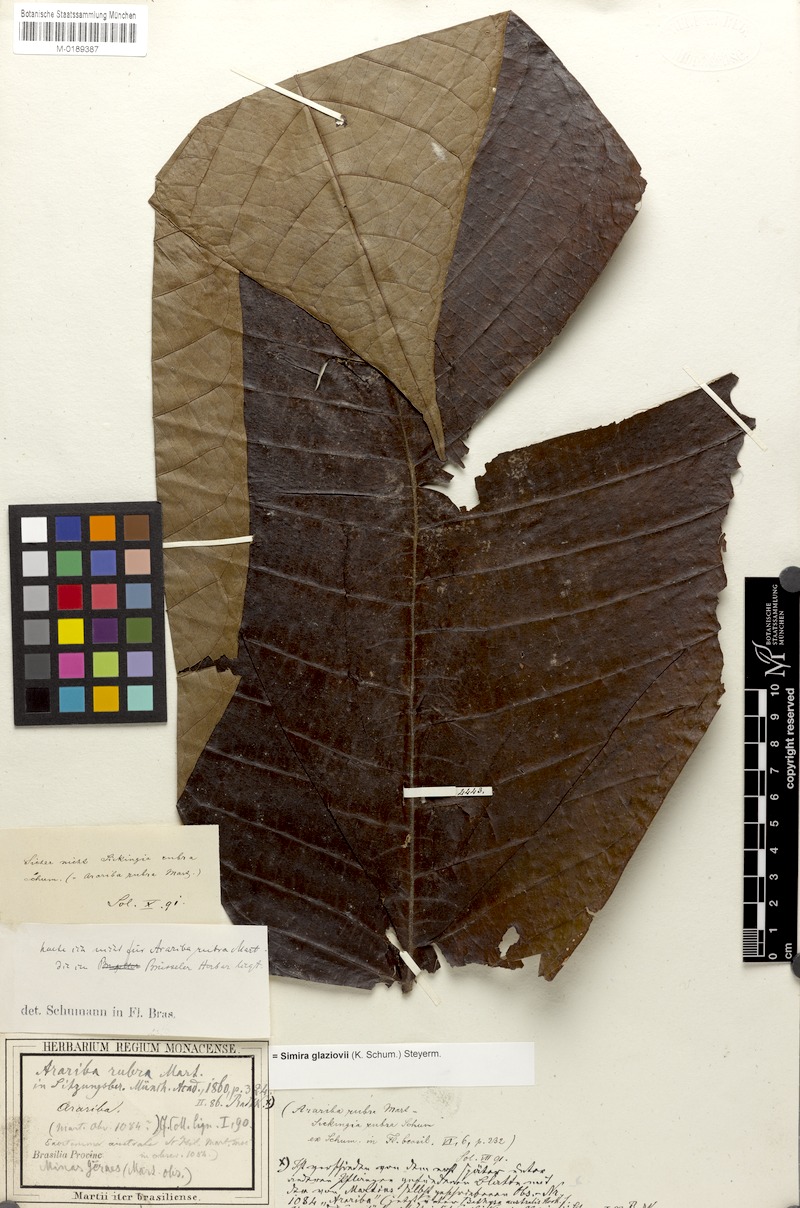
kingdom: Plantae
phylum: Tracheophyta
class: Magnoliopsida
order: Gentianales
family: Rubiaceae
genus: Simira
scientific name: Simira alba
